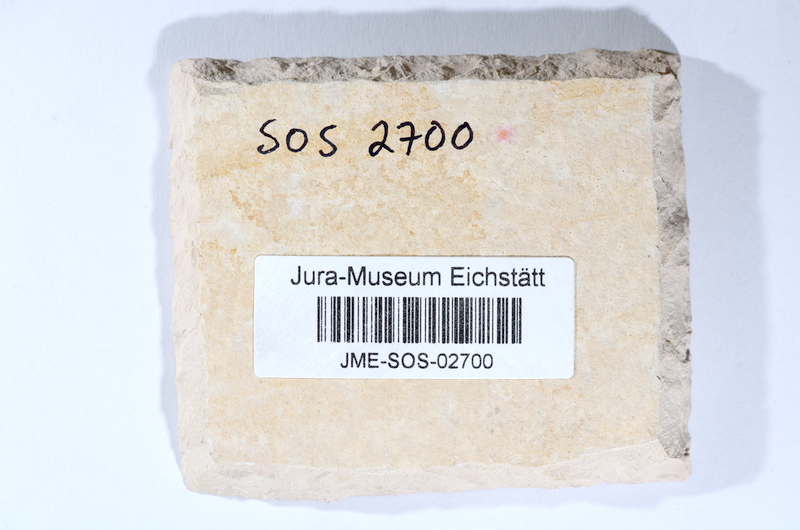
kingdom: Animalia
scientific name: Animalia
